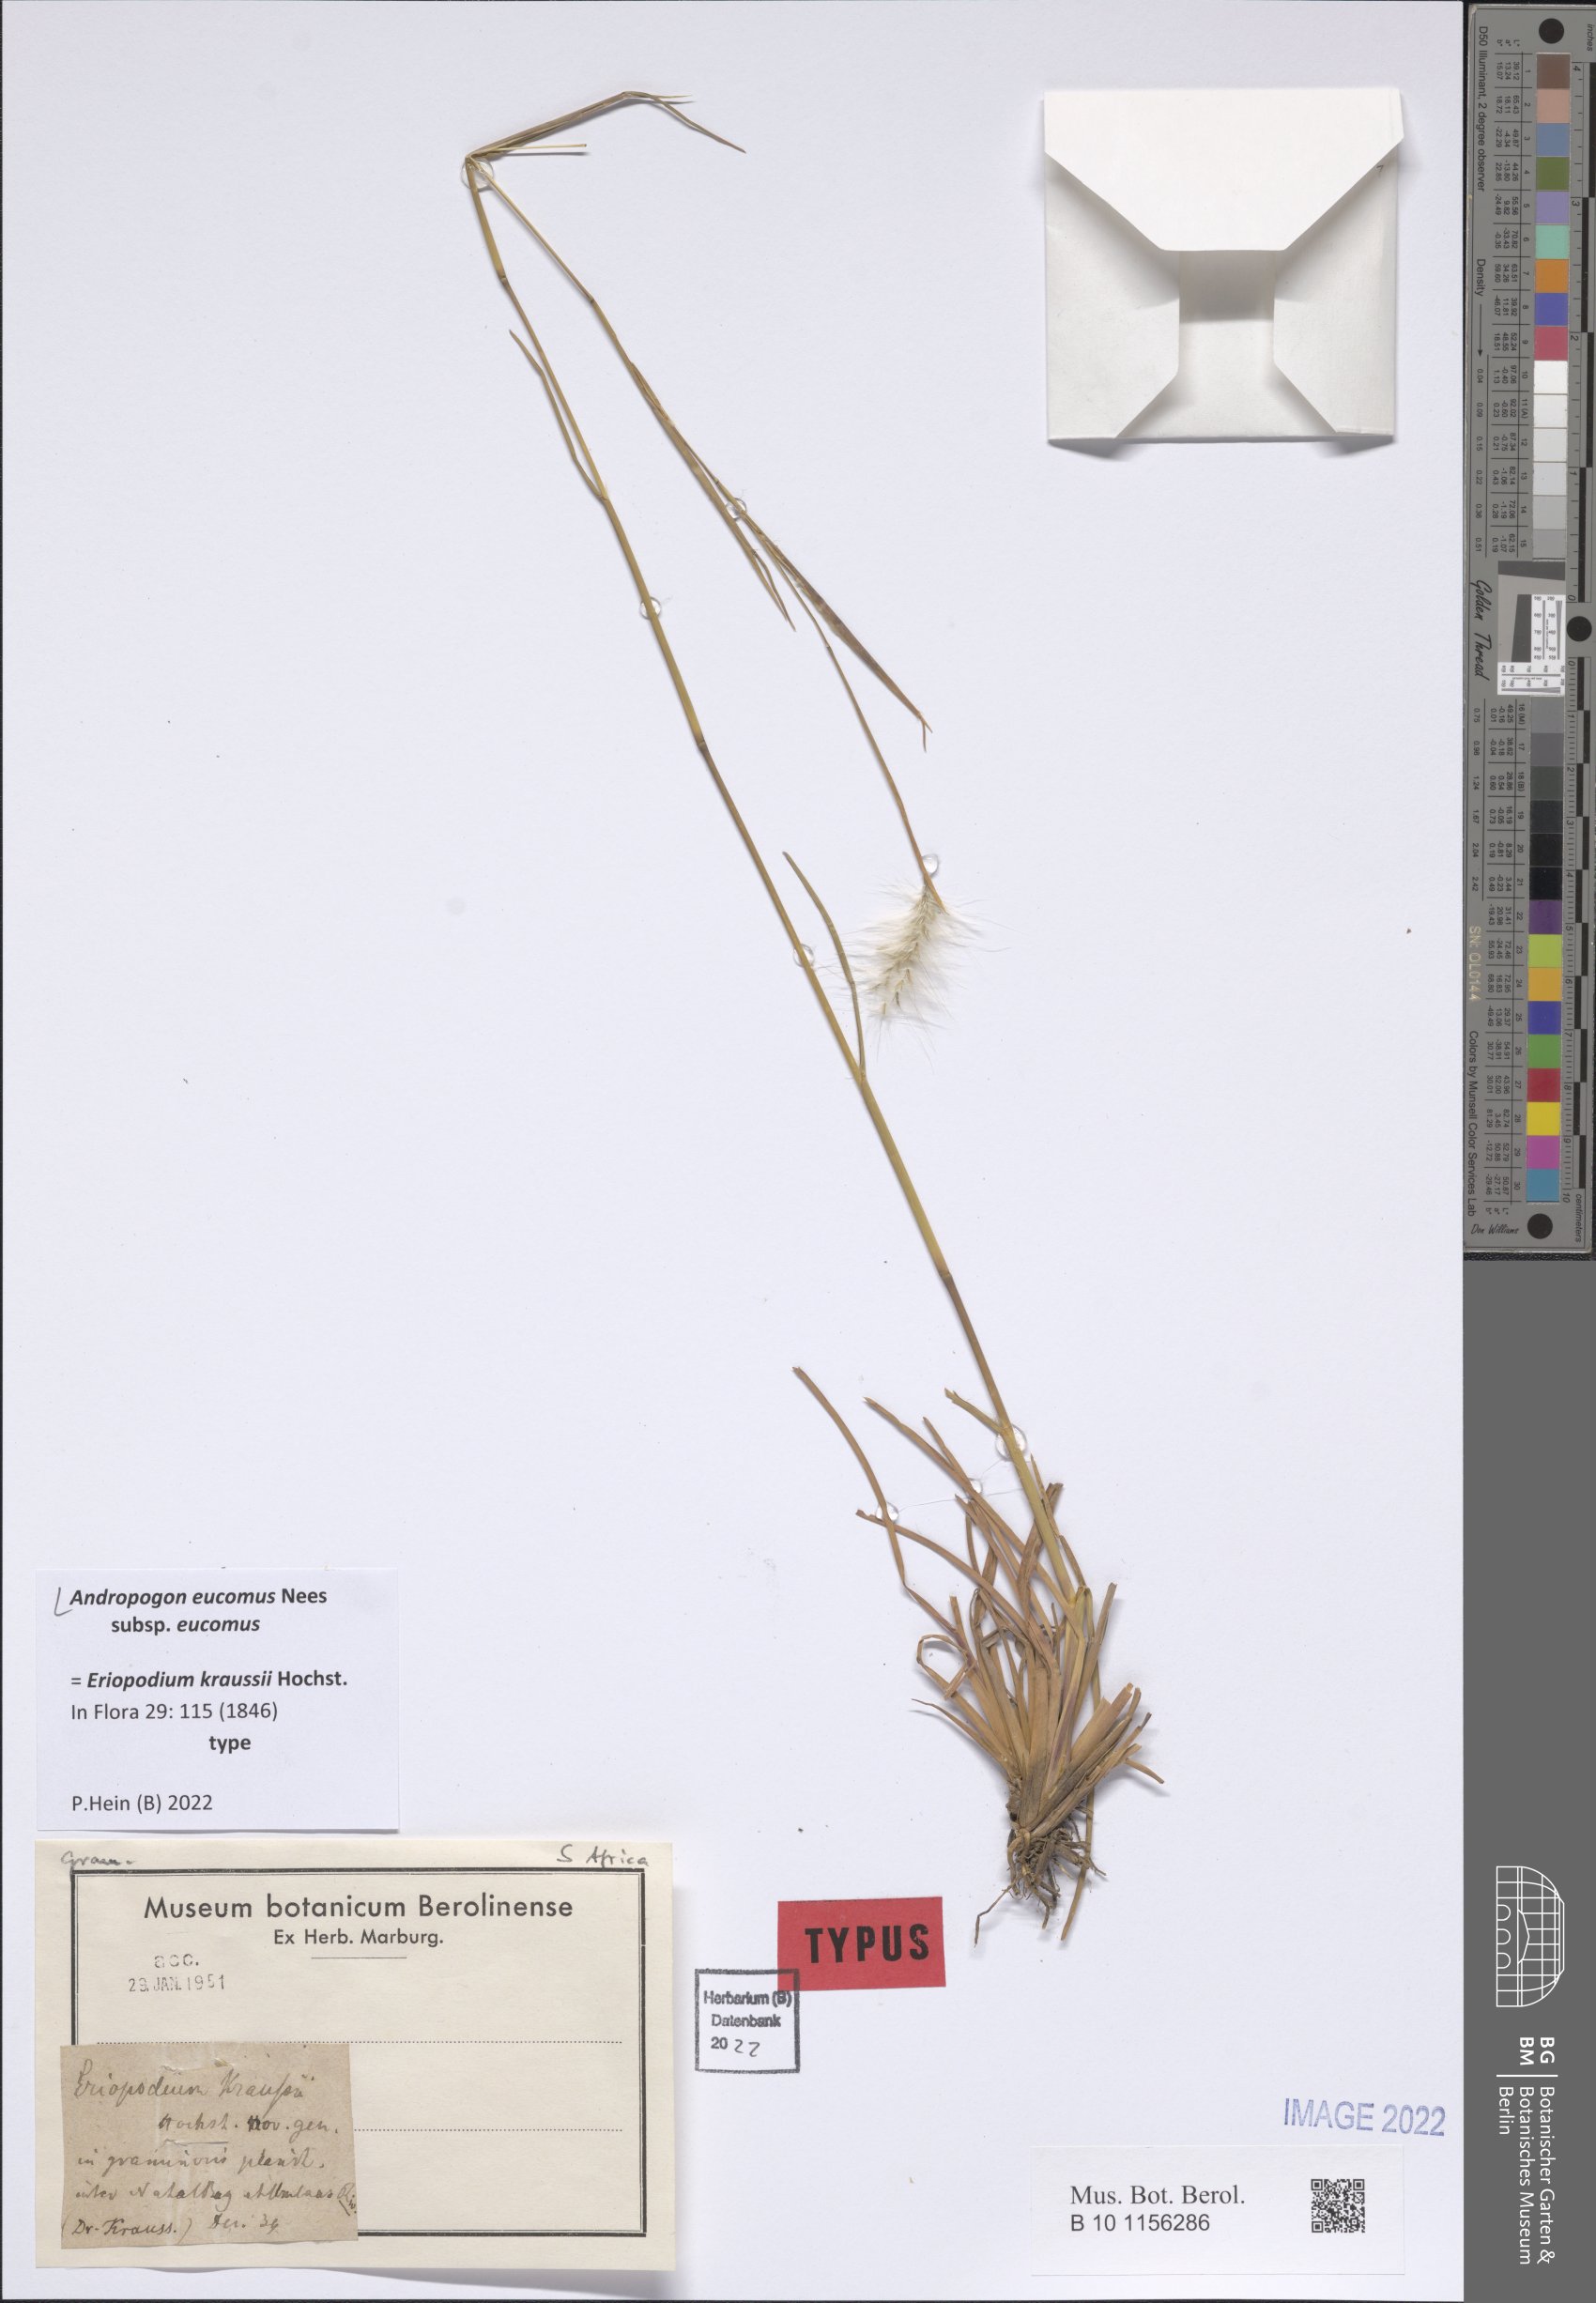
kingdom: Plantae
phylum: Tracheophyta
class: Liliopsida
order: Poales
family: Poaceae
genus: Andropogon
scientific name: Andropogon eucomus
